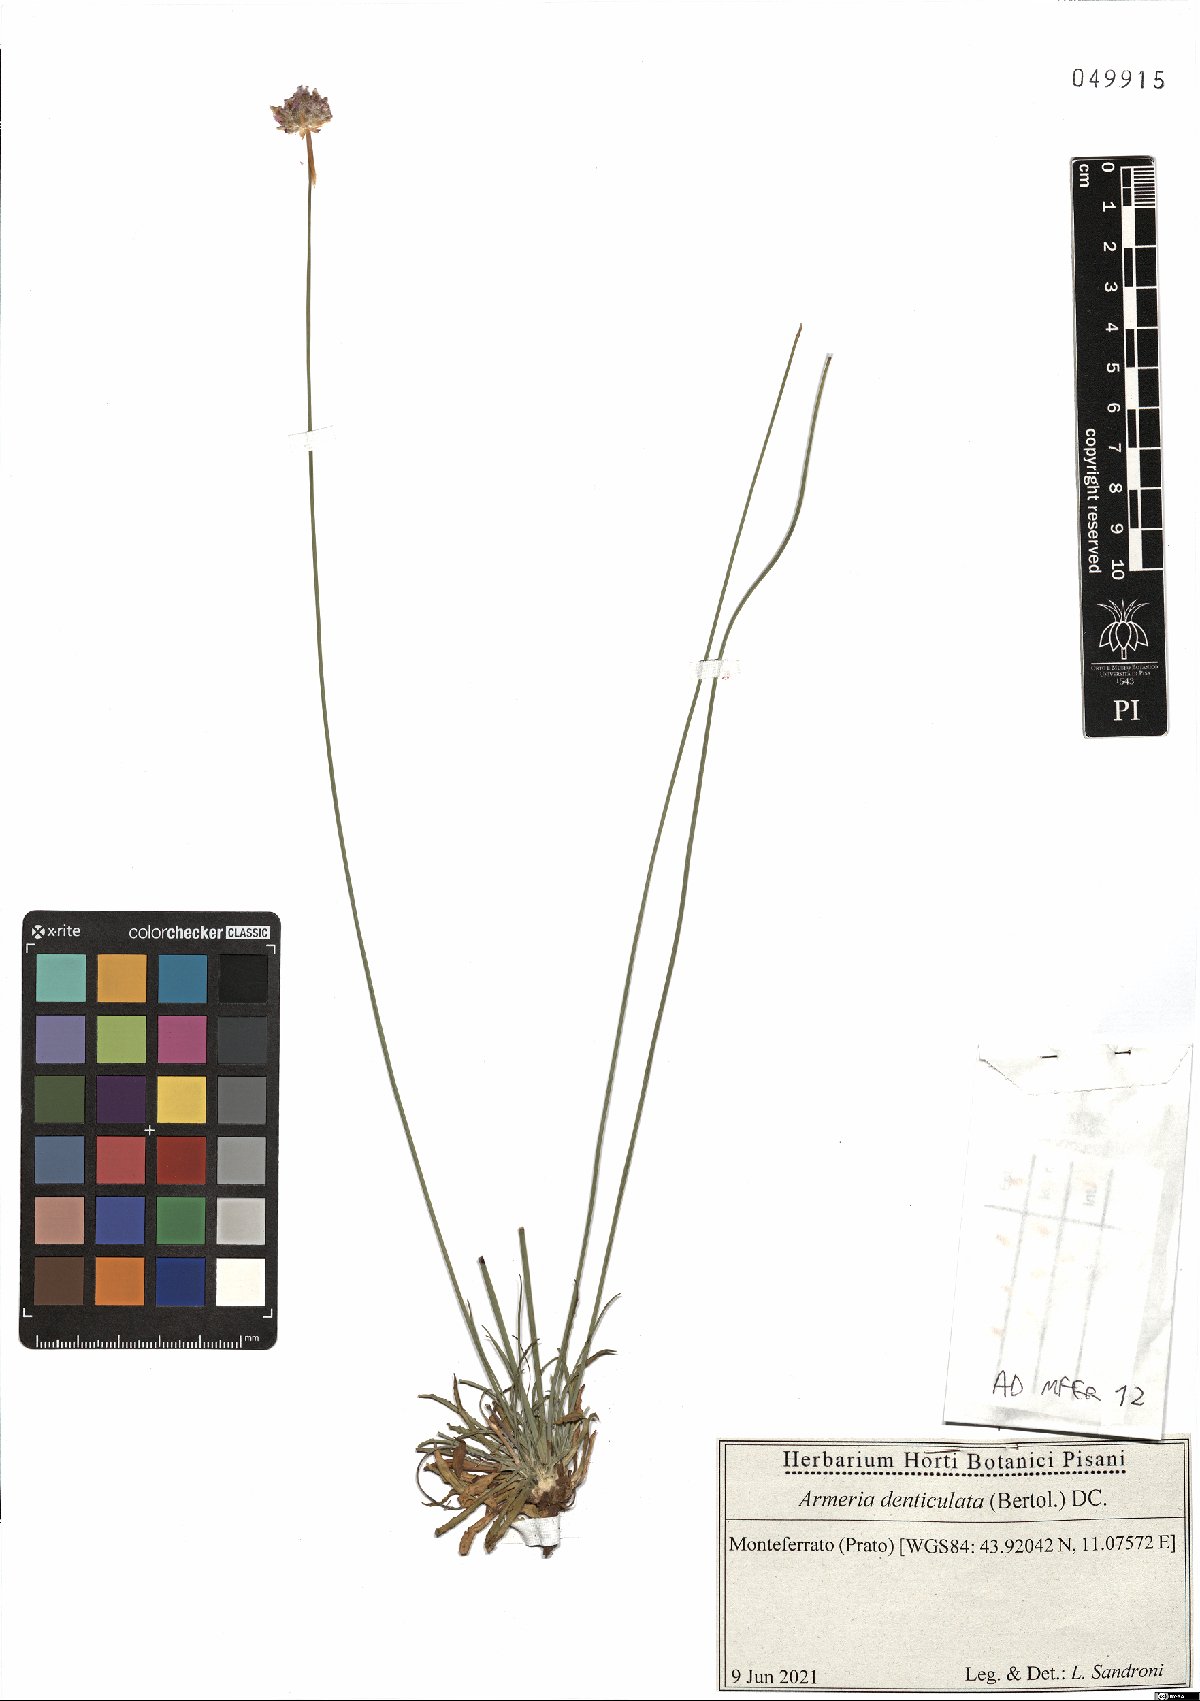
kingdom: Plantae
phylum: Tracheophyta
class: Magnoliopsida
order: Caryophyllales
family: Plumbaginaceae
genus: Armeria
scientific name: Armeria denticulata
